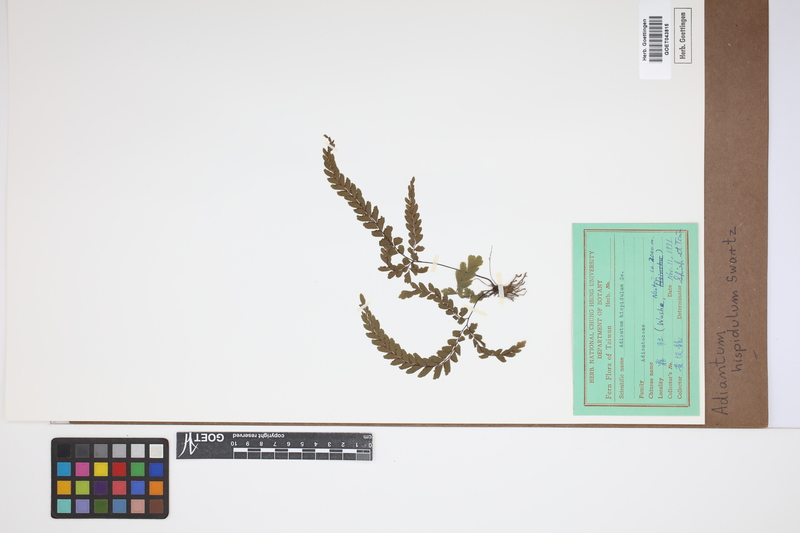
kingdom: Plantae
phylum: Tracheophyta
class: Polypodiopsida
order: Polypodiales
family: Pteridaceae
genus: Adiantum
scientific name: Adiantum hispidulum
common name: Rough maidenhair
